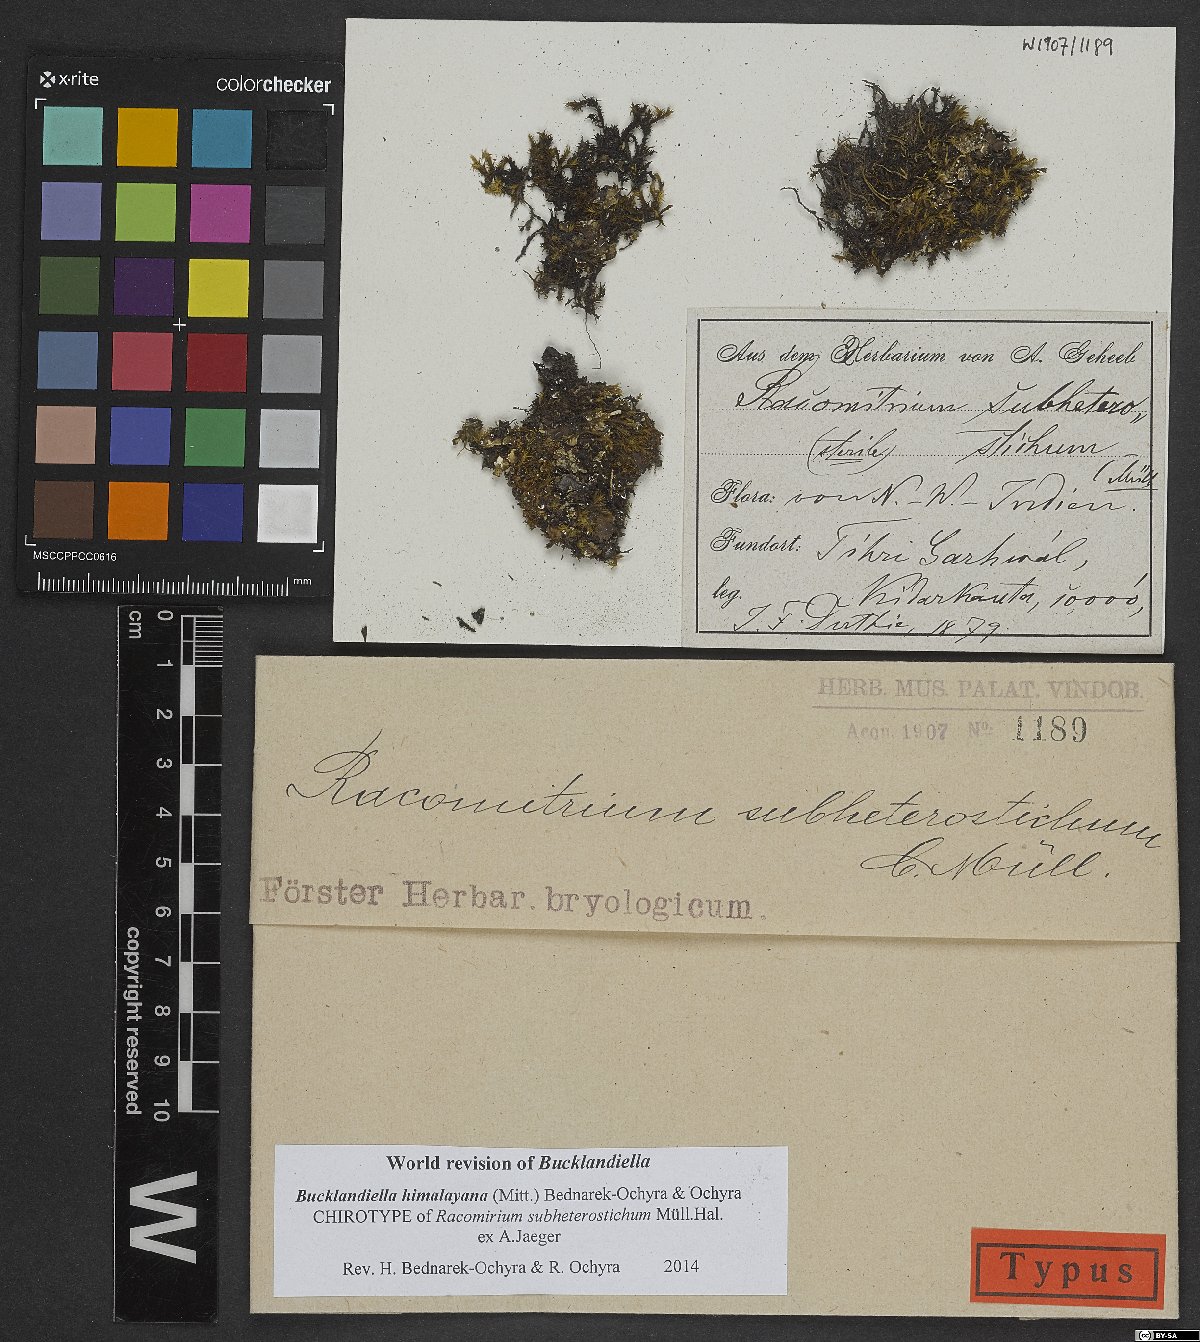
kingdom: Plantae
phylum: Bryophyta
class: Bryopsida
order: Grimmiales
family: Grimmiaceae
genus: Bucklandiella
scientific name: Bucklandiella subsecunda
